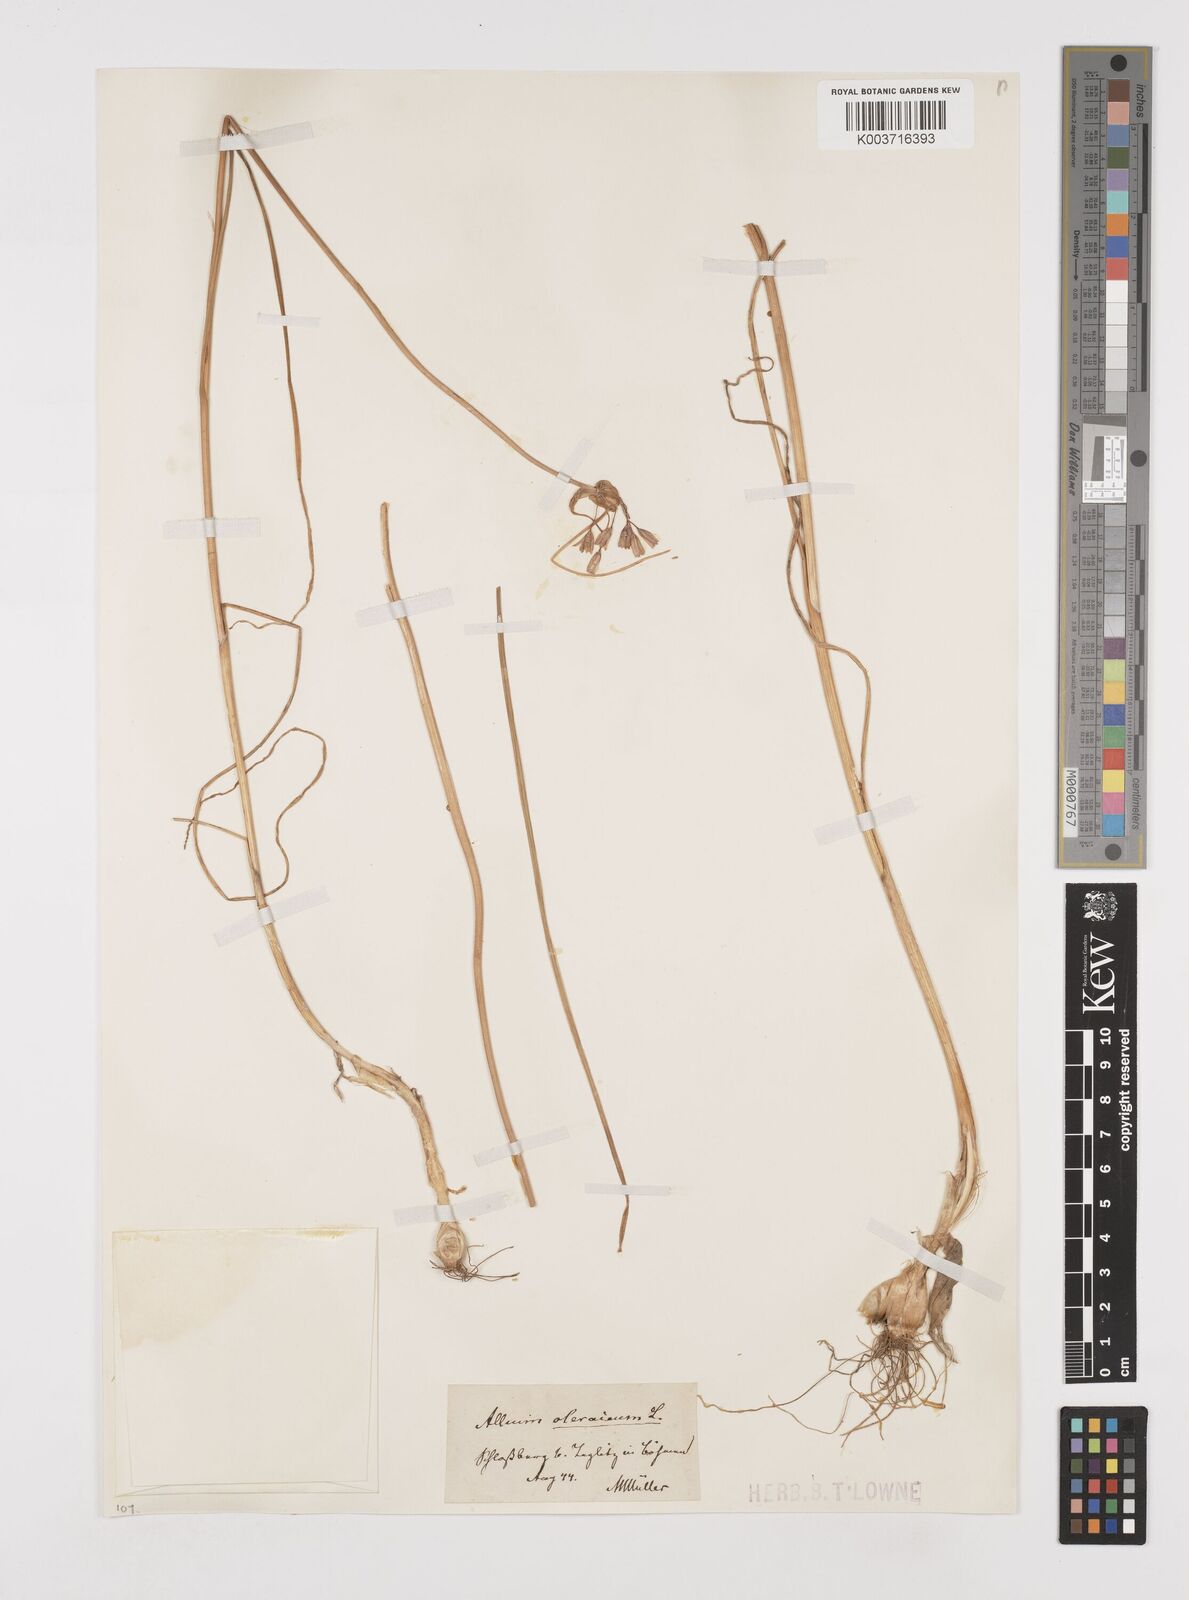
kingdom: Plantae
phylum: Tracheophyta
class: Liliopsida
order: Asparagales
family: Amaryllidaceae
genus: Allium
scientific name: Allium oleraceum
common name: Field garlic
